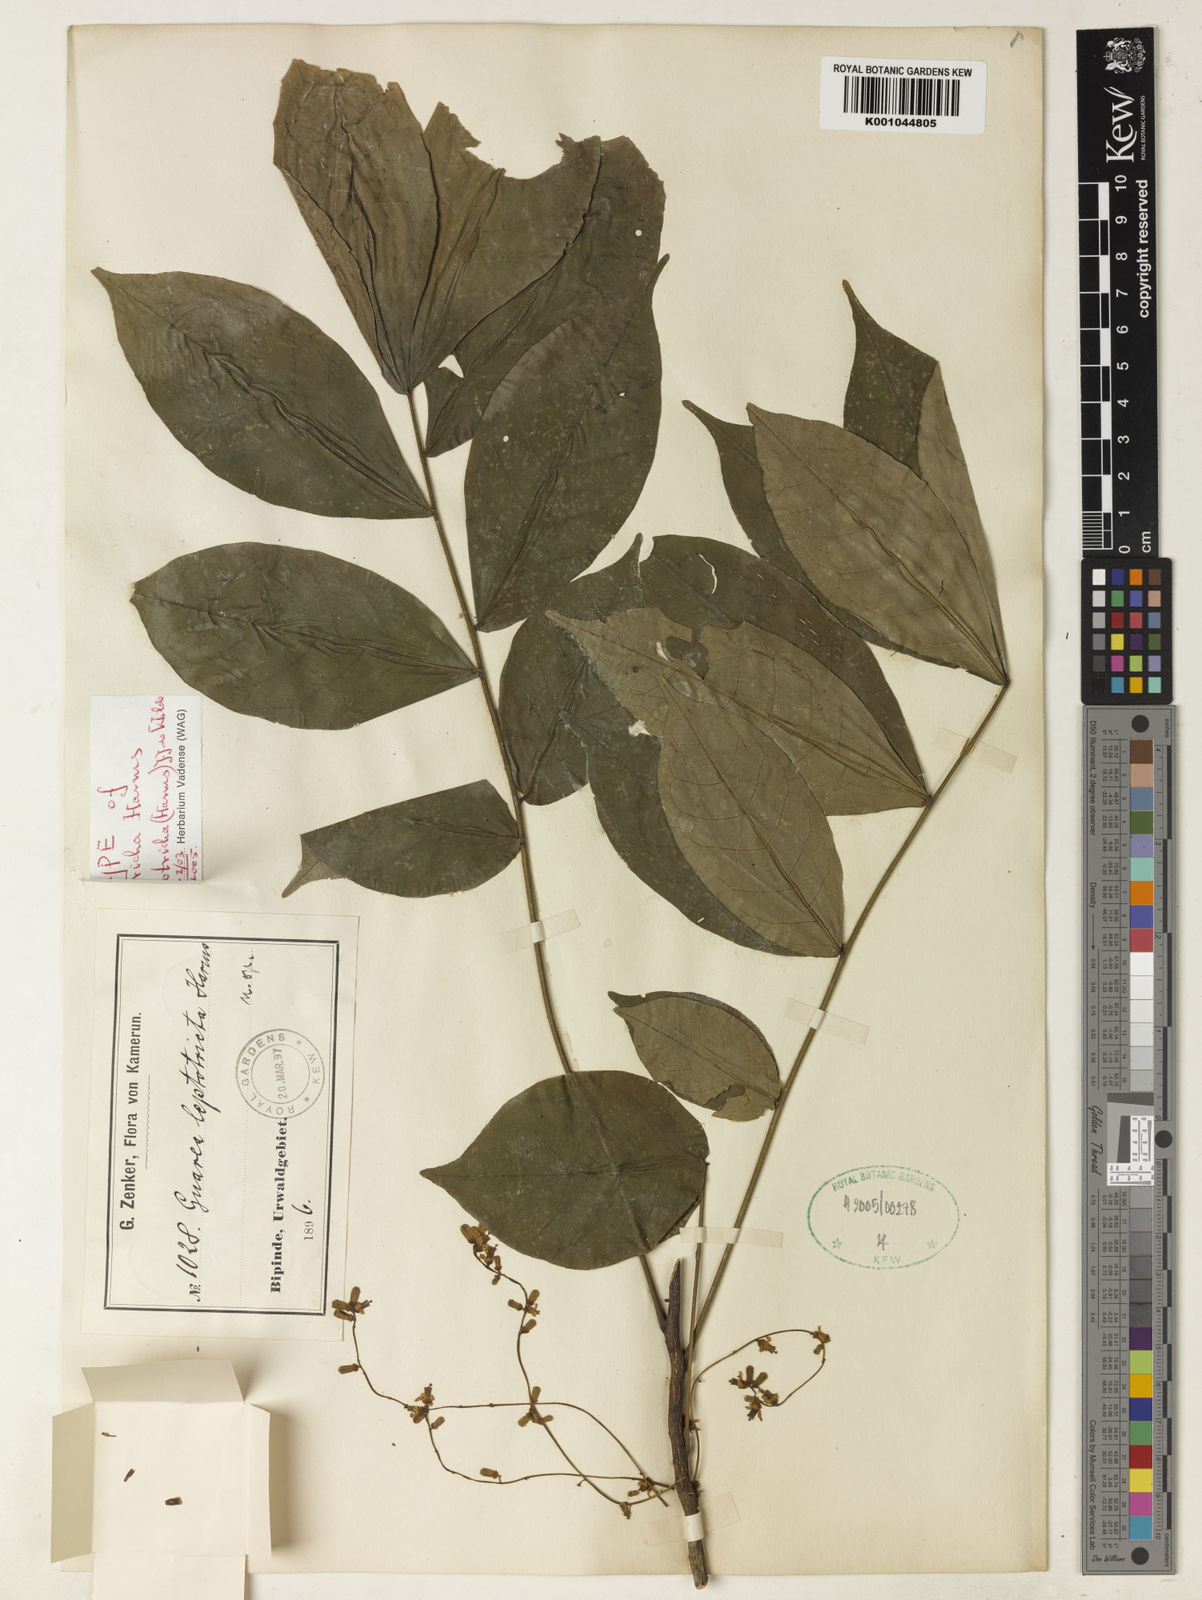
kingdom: Plantae
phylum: Tracheophyta
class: Magnoliopsida
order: Sapindales
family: Meliaceae
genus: Heckeldora
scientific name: Heckeldora leptotricha
